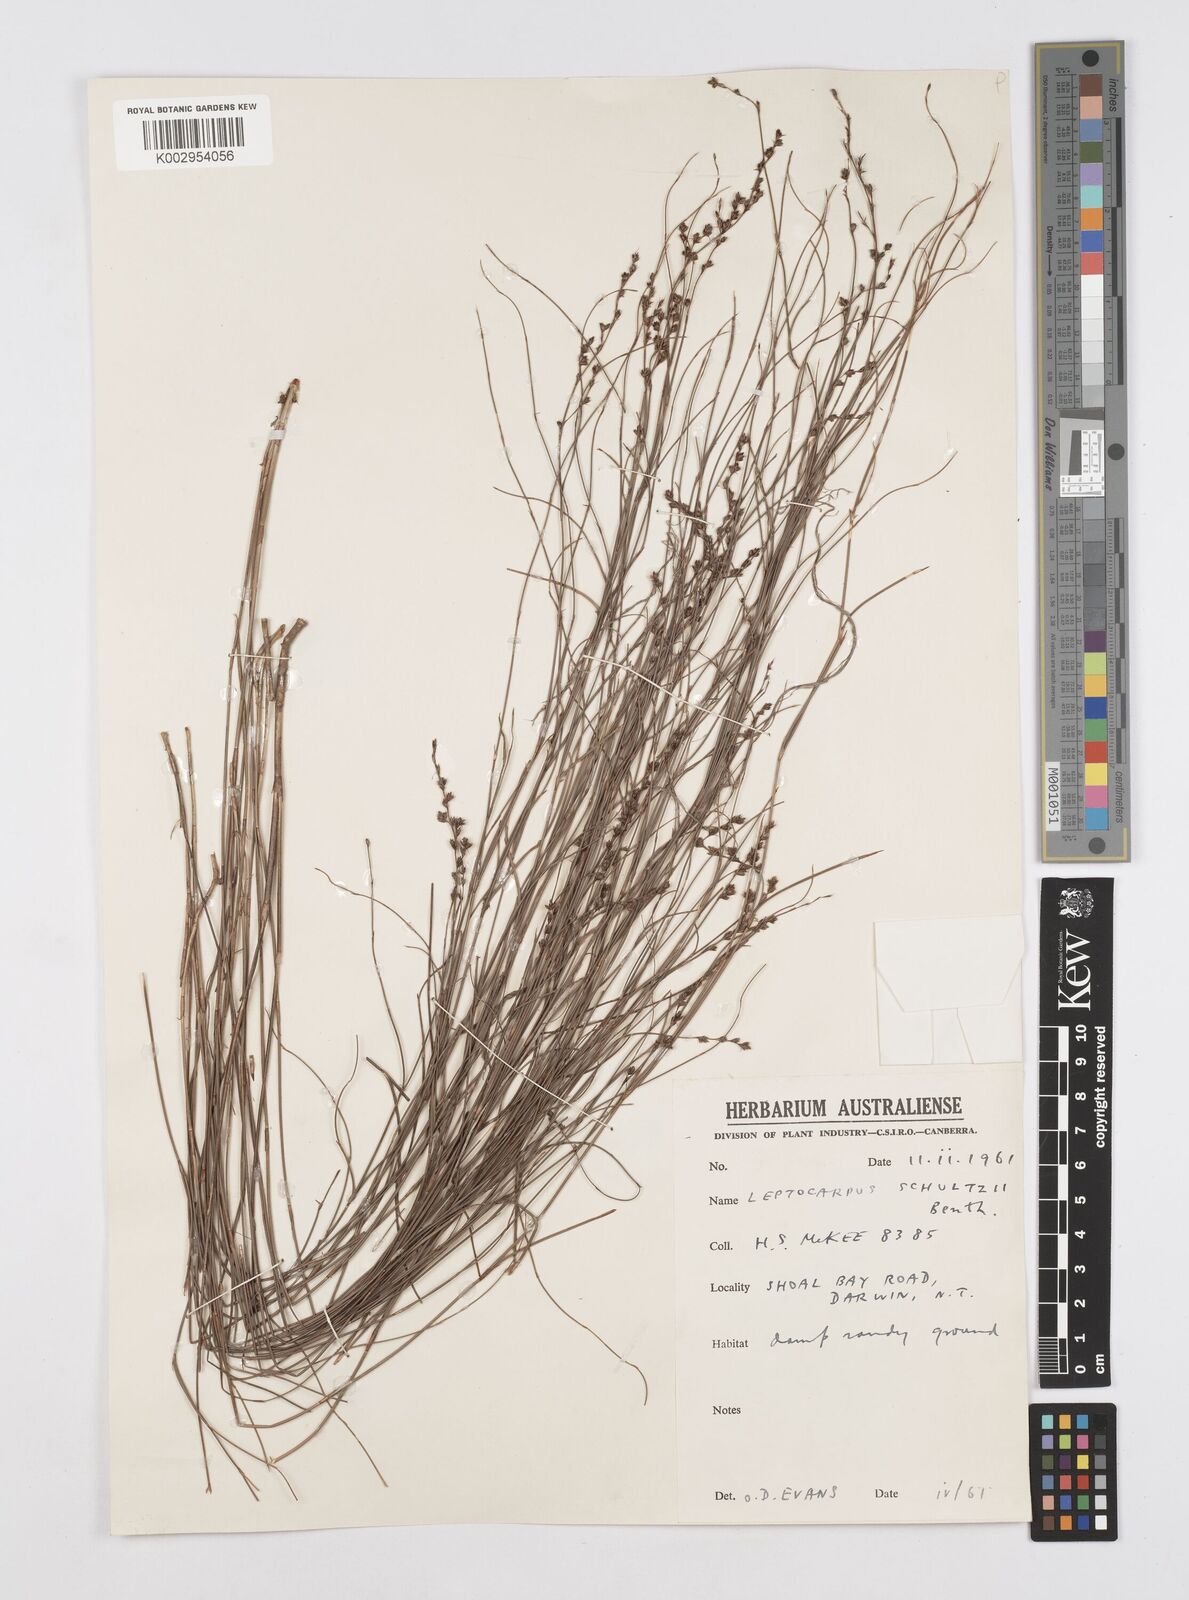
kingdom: Plantae
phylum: Tracheophyta
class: Liliopsida
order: Poales
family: Restionaceae
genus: Dapsilanthus
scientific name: Dapsilanthus spathaceus
